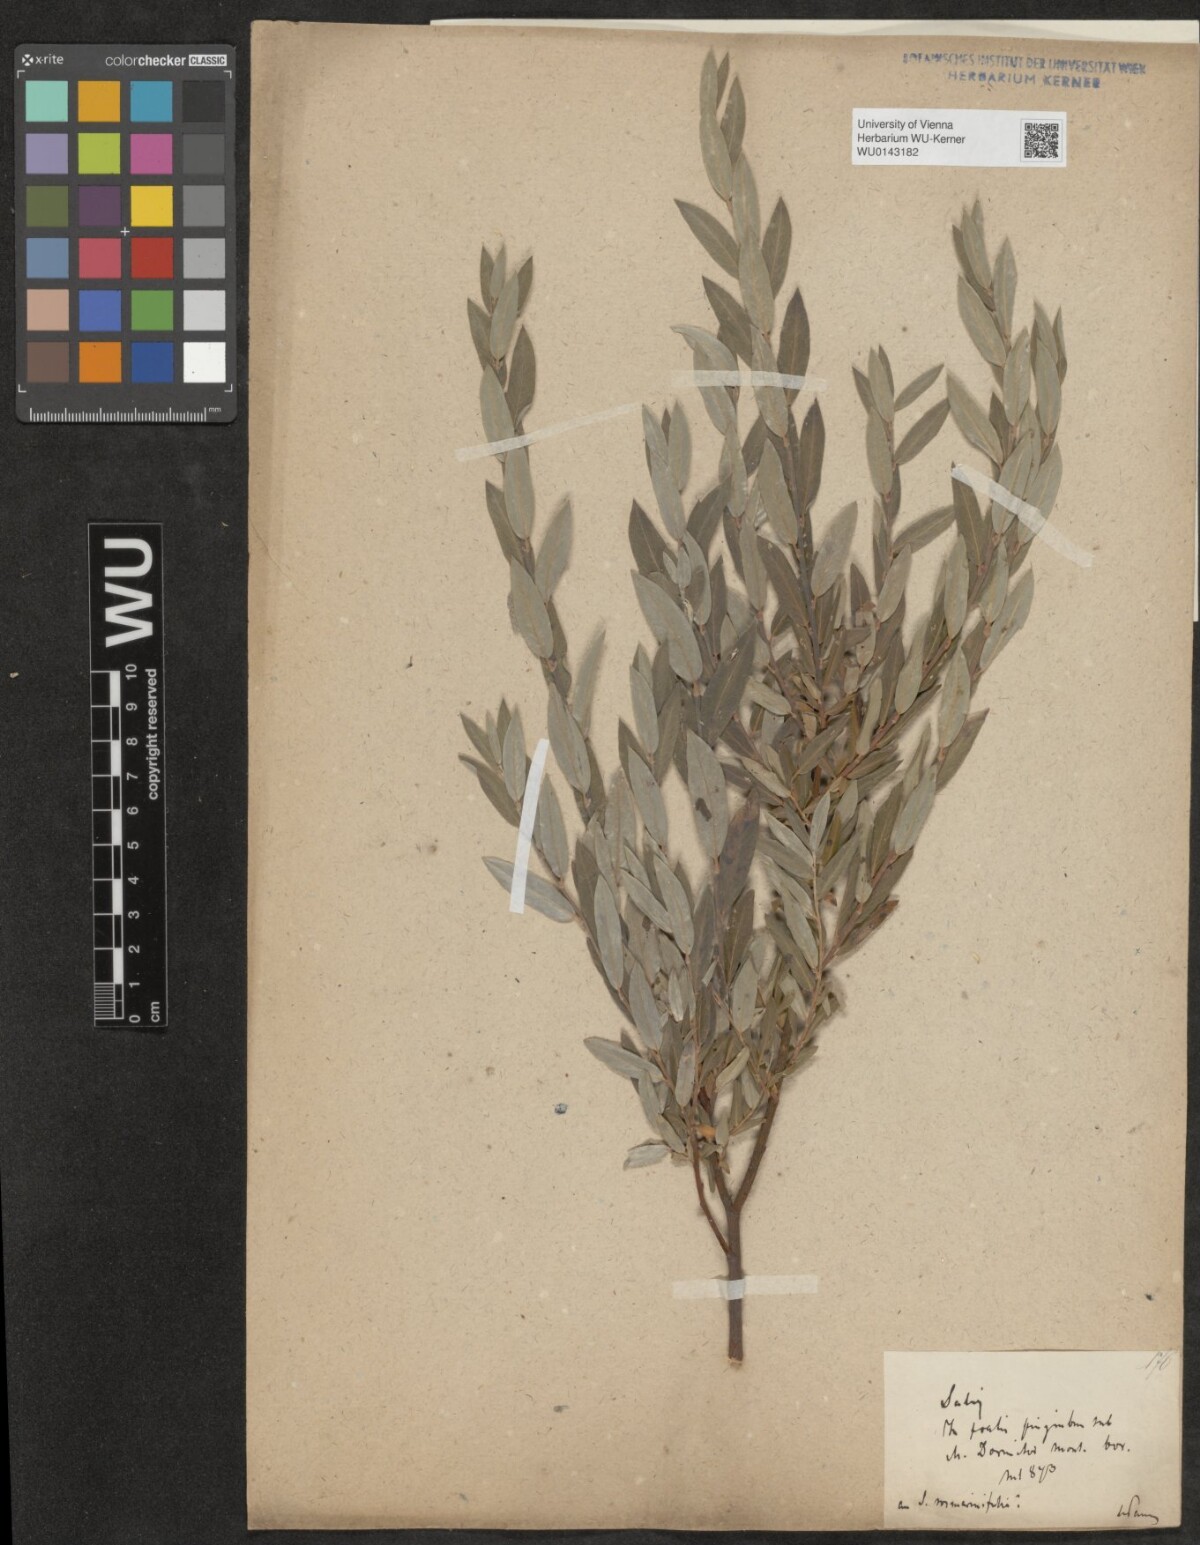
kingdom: Plantae
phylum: Tracheophyta
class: Magnoliopsida
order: Malpighiales
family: Salicaceae
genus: Salix
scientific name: Salix repens
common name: Creeping willow
